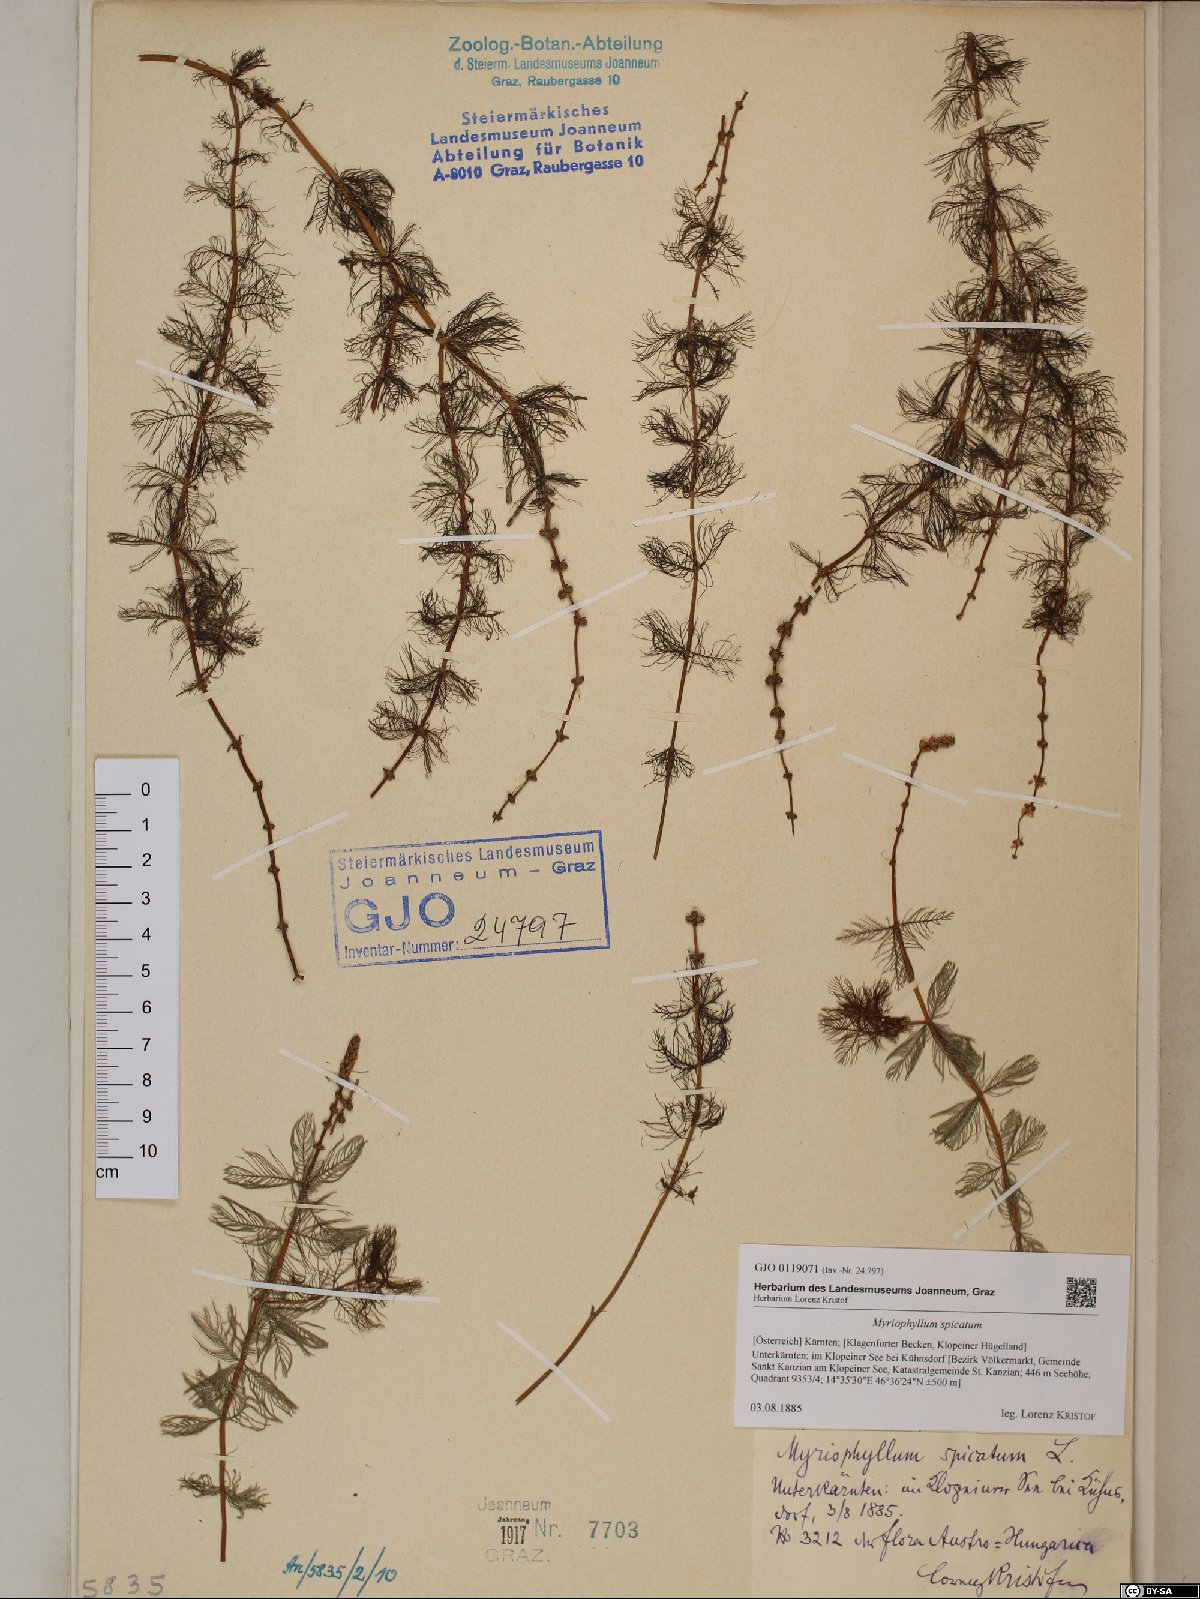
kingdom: Plantae
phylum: Tracheophyta
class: Magnoliopsida
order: Saxifragales
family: Haloragaceae
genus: Myriophyllum
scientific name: Myriophyllum spicatum
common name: Spiked water-milfoil
